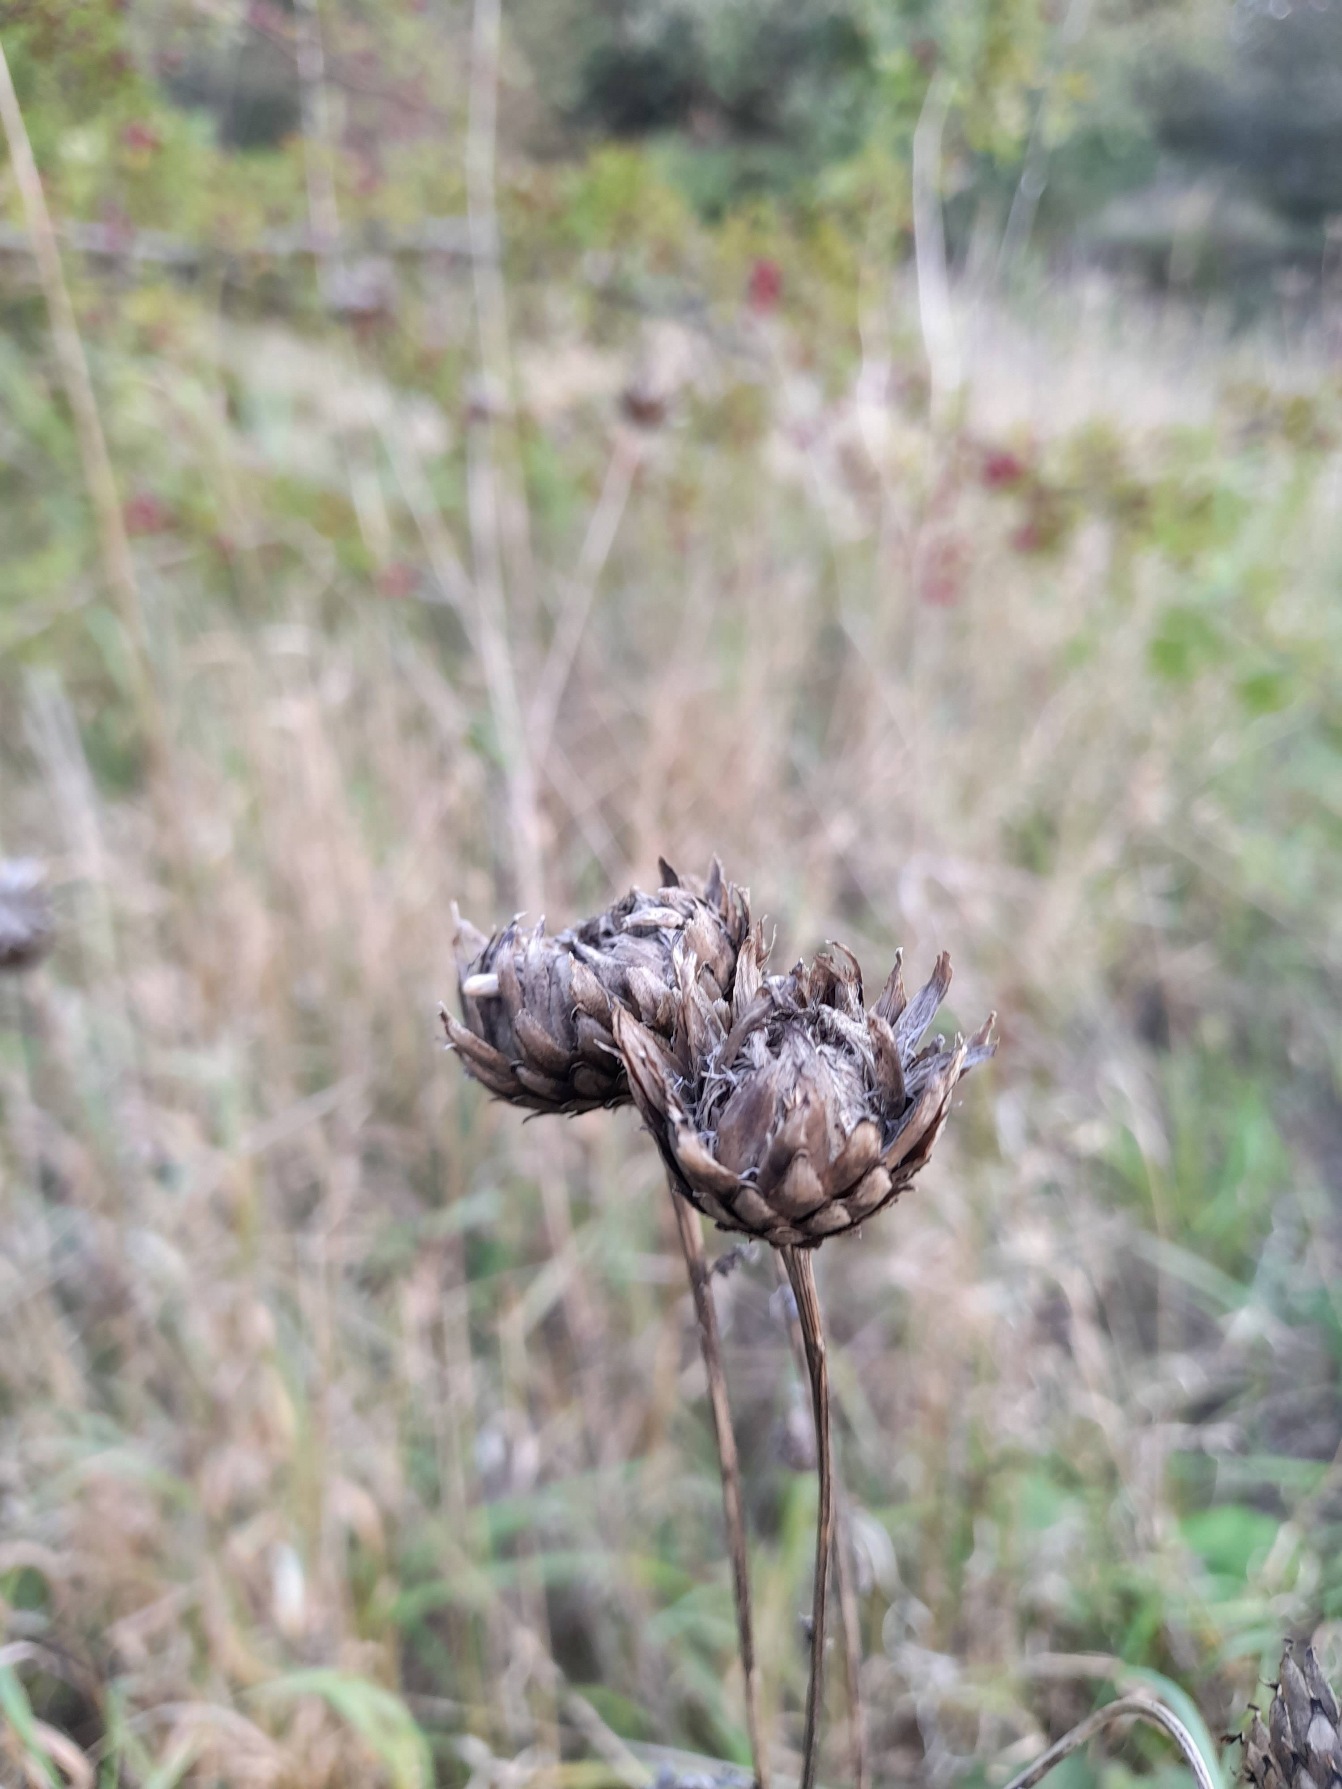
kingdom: Plantae
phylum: Tracheophyta
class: Magnoliopsida
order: Asterales
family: Asteraceae
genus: Centaurea
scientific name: Centaurea scabiosa
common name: Stor knopurt
